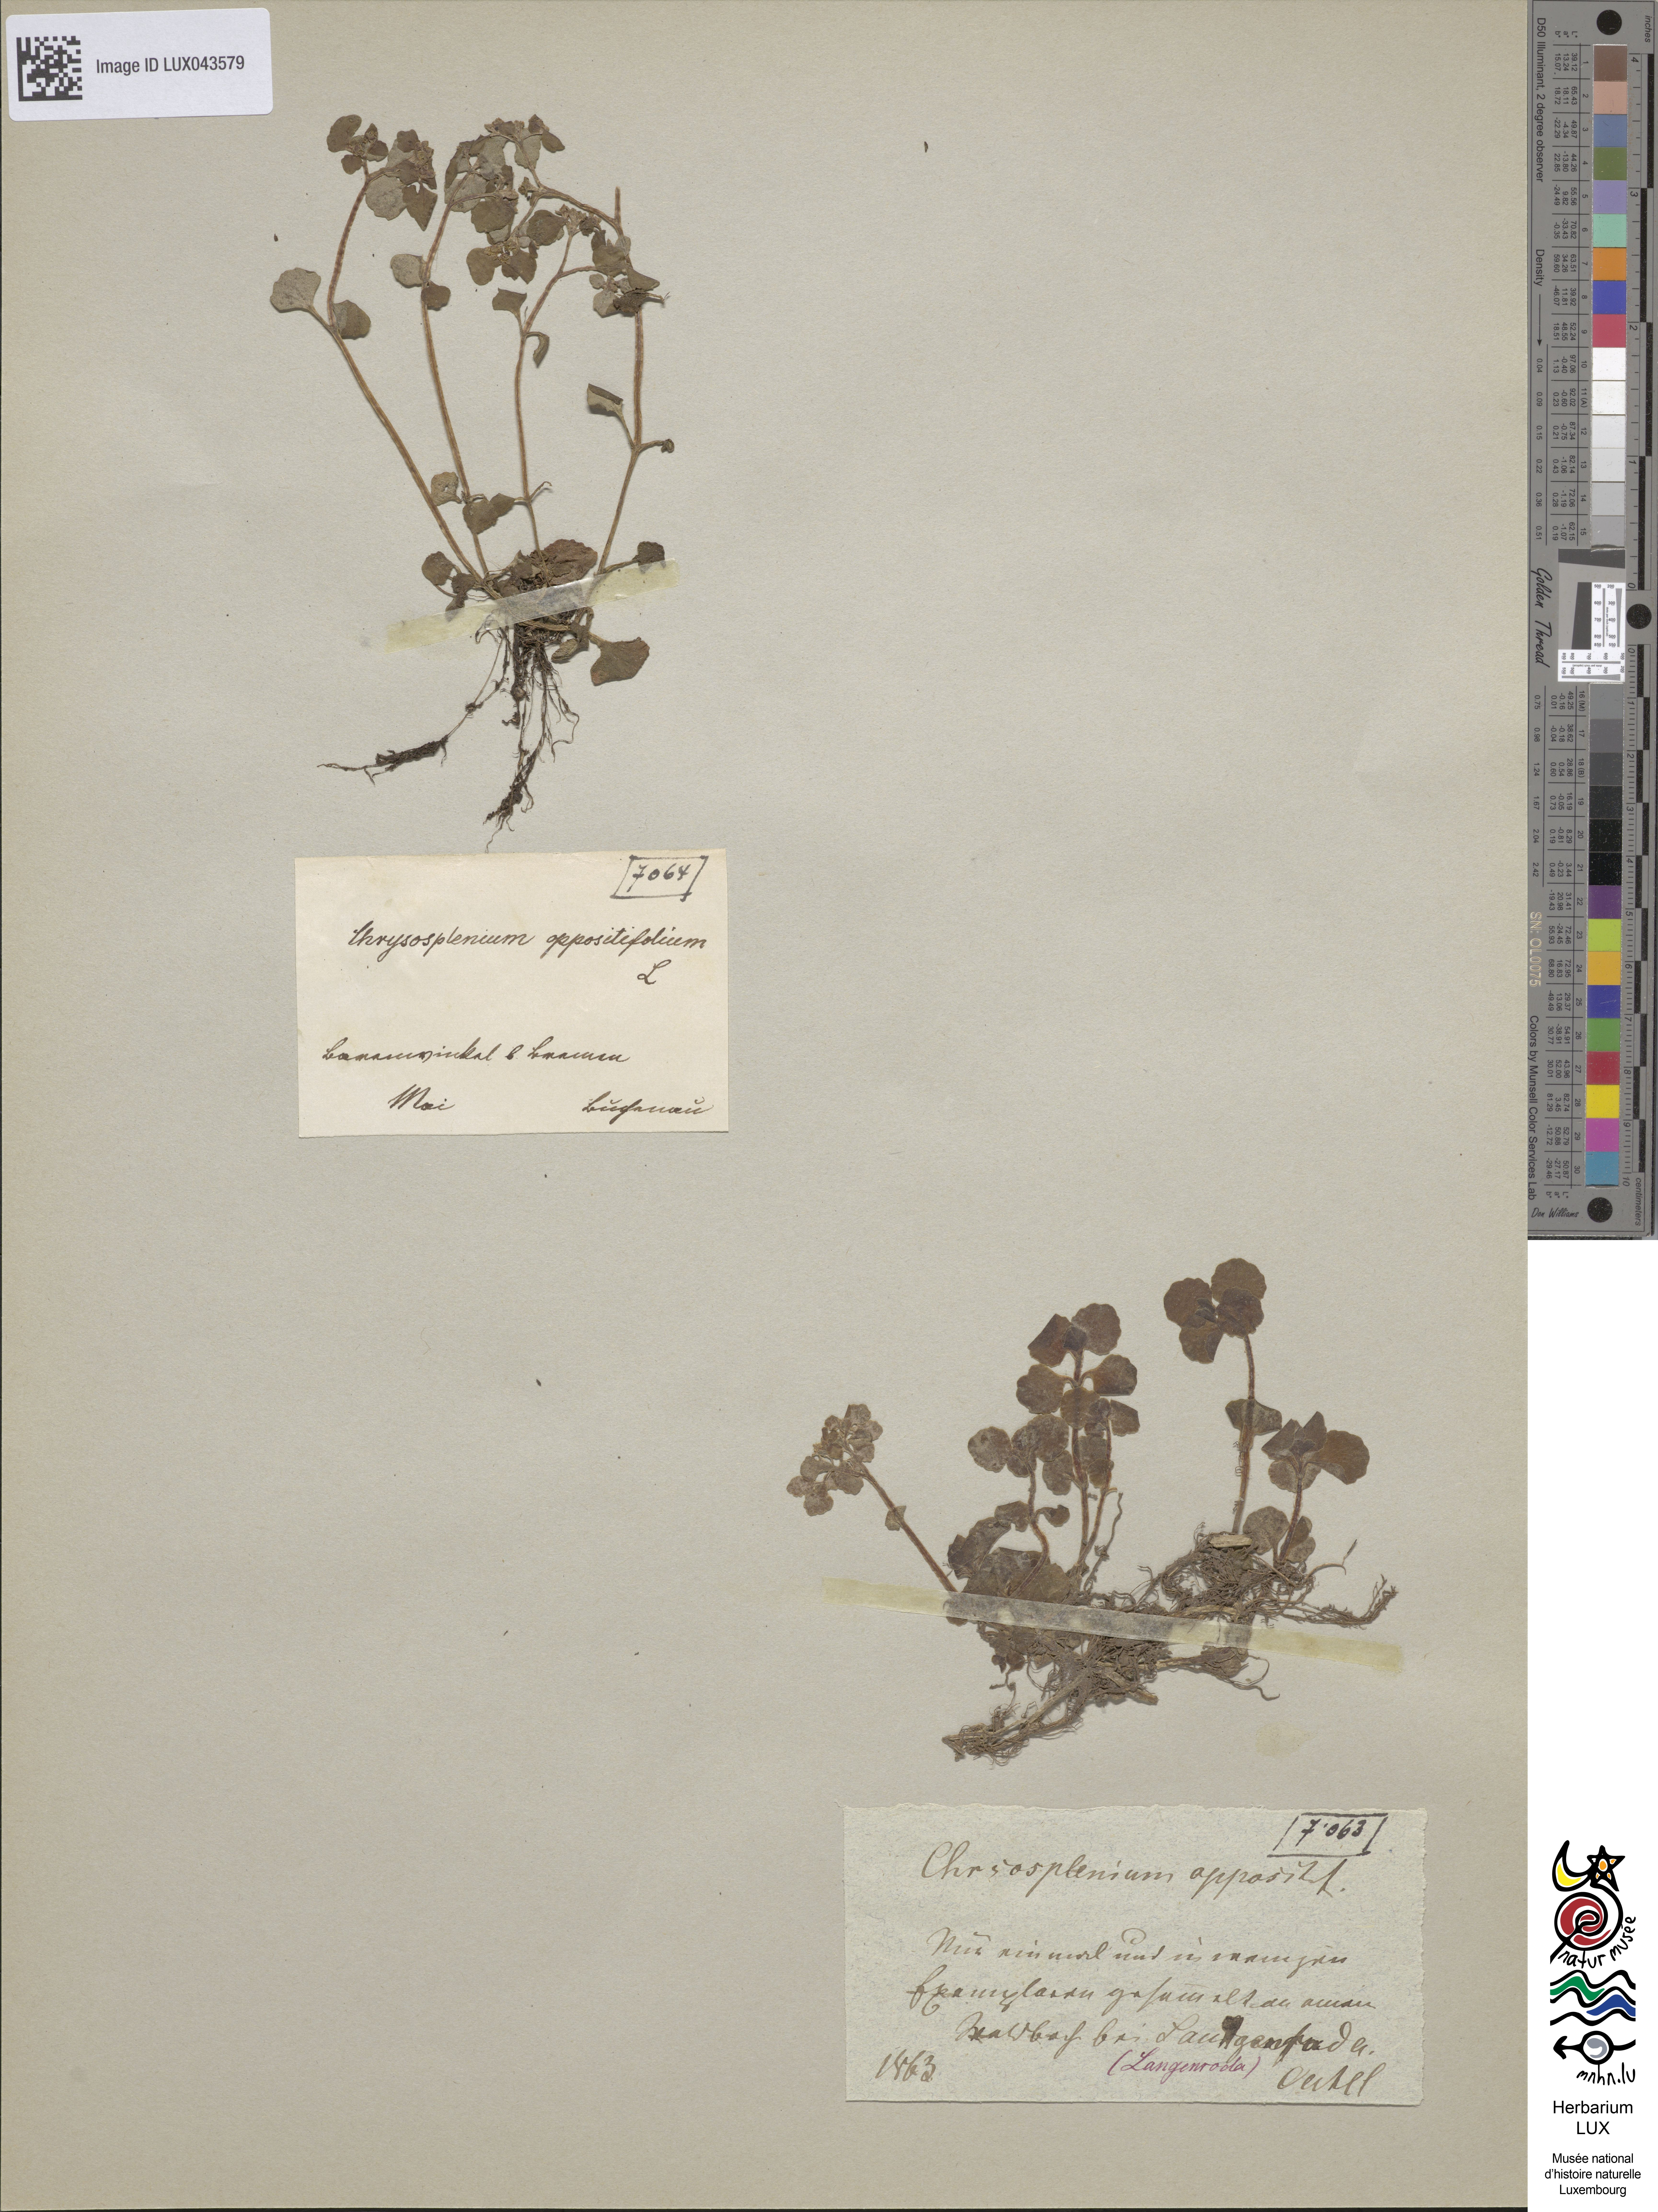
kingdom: Plantae
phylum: Tracheophyta
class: Magnoliopsida
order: Saxifragales
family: Saxifragaceae
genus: Chrysosplenium
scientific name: Chrysosplenium oppositifolium
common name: Opposite-leaved golden-saxifrage
